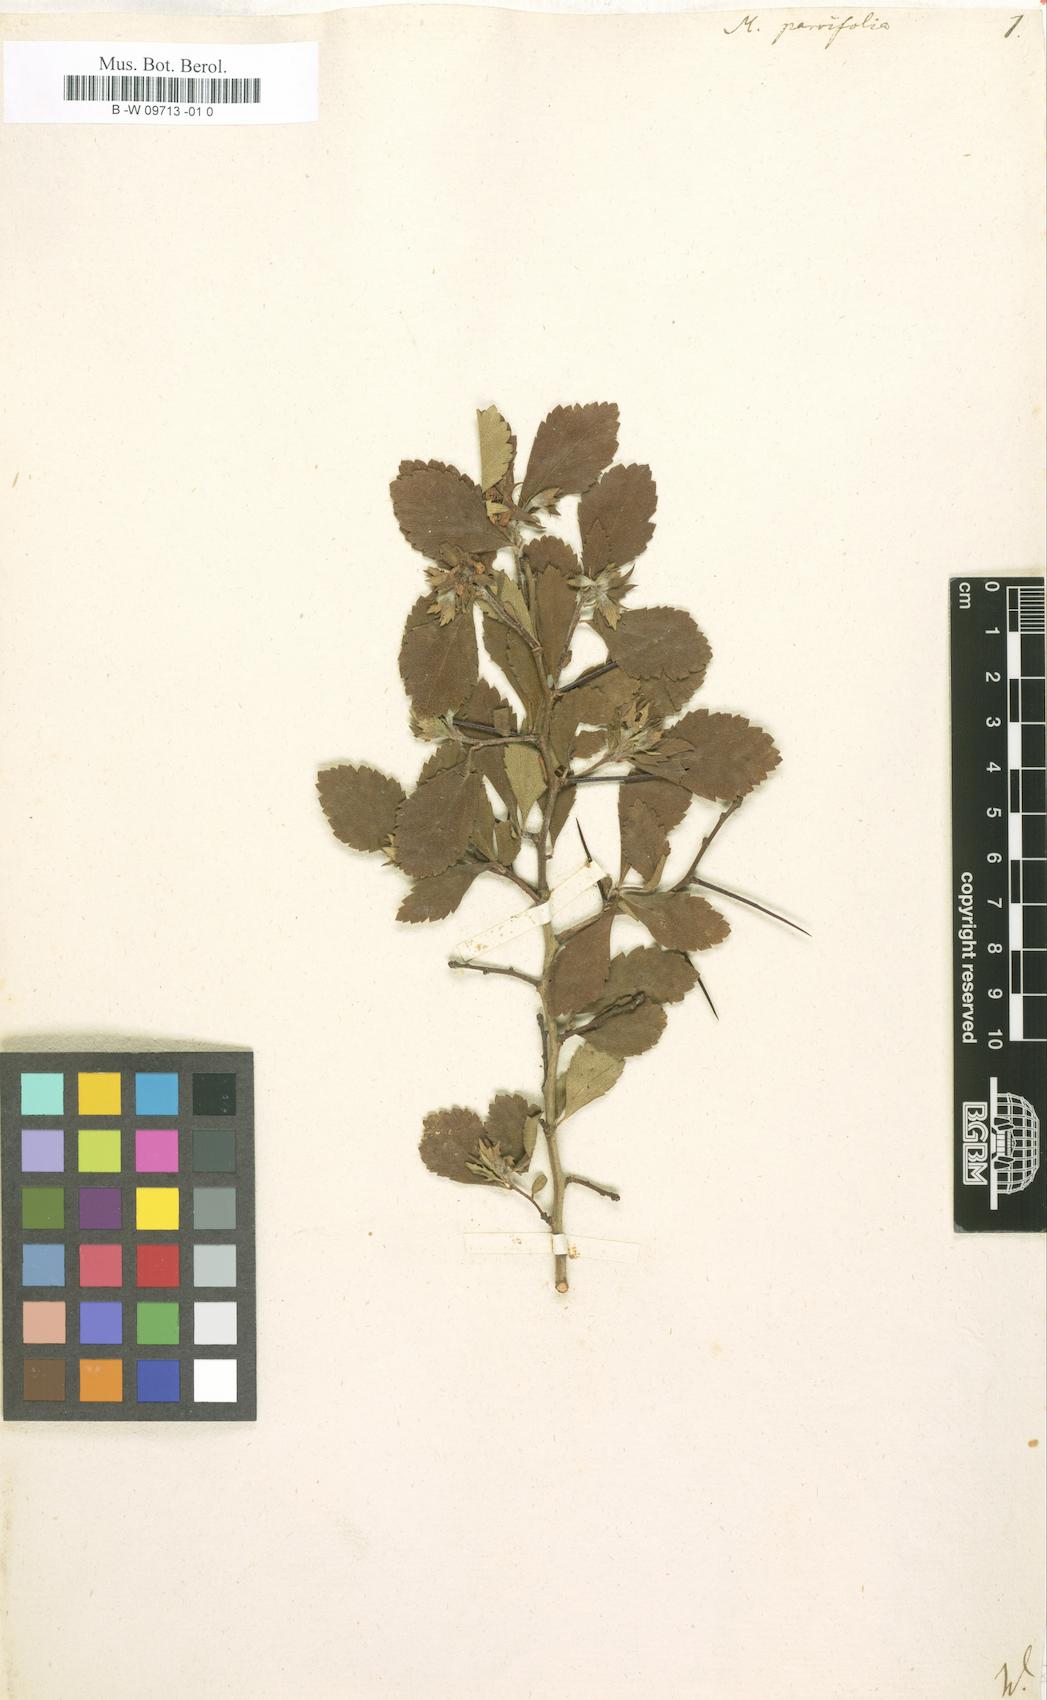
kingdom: Plantae
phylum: Tracheophyta
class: Magnoliopsida
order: Rosales
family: Rosaceae
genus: Crataegus
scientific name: Crataegus uniflora
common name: One-flower hawthorn
